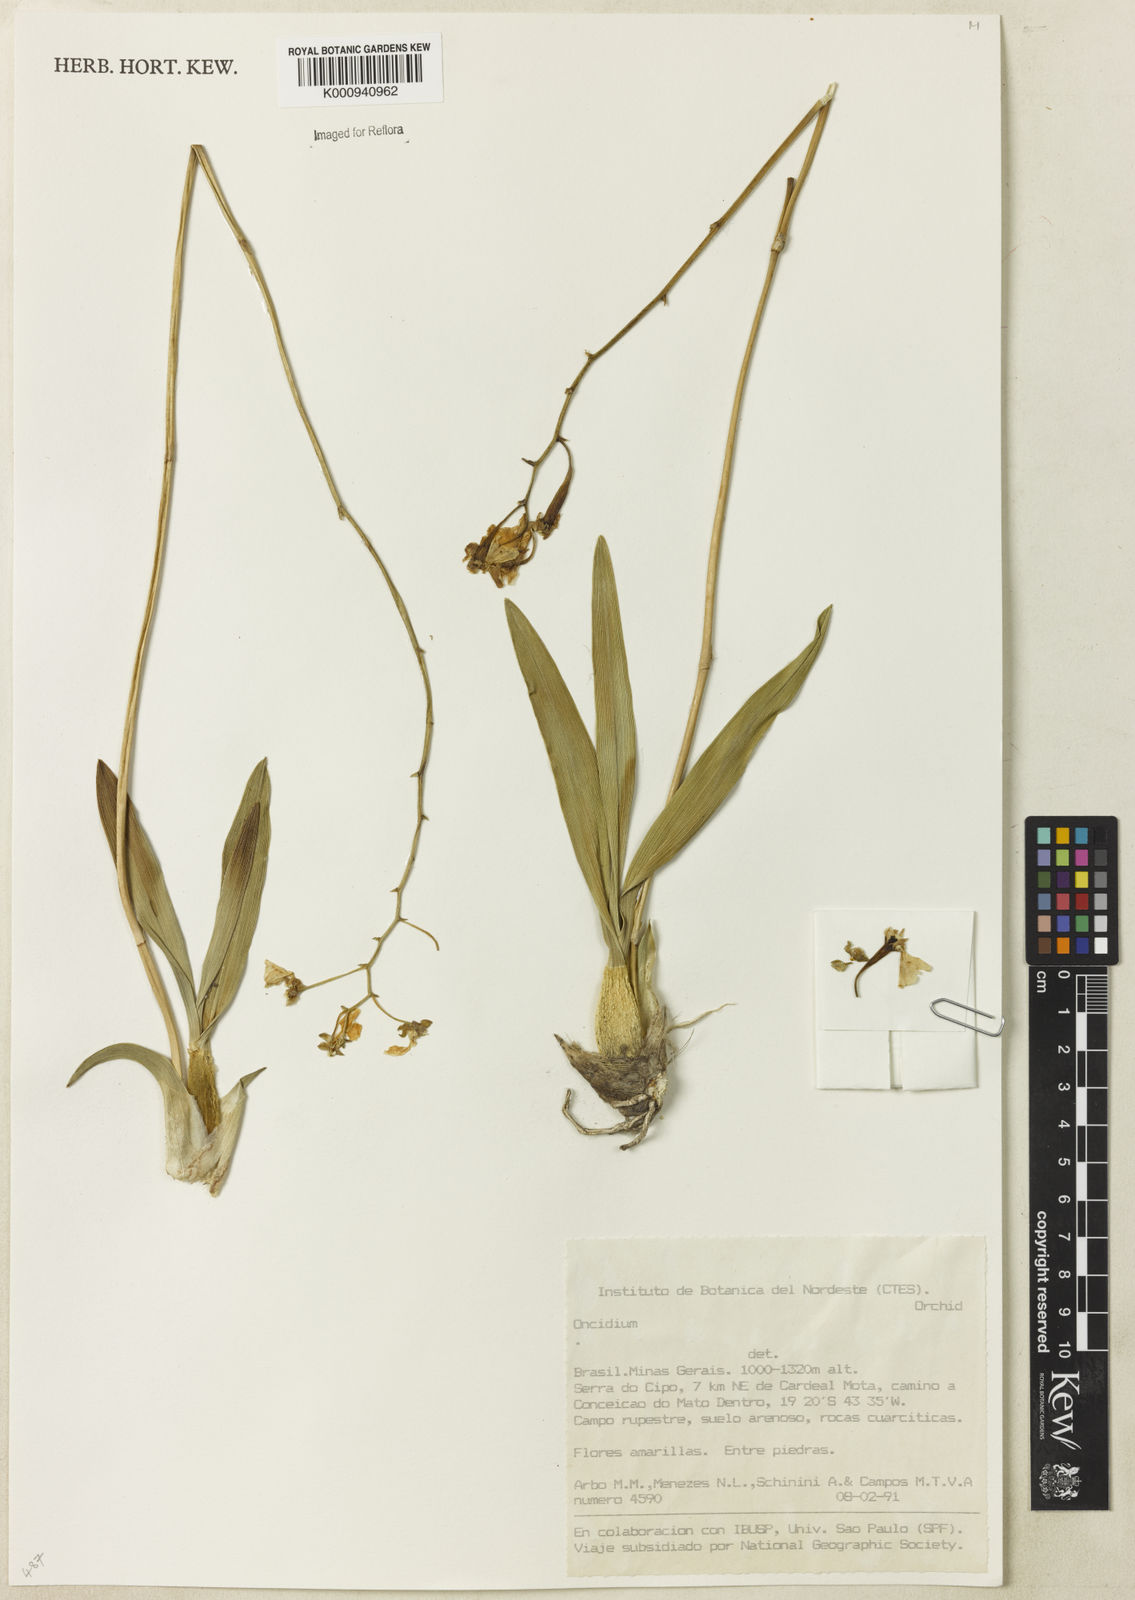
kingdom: Plantae
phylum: Tracheophyta
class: Liliopsida
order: Asparagales
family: Orchidaceae
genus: Oncidium
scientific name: Oncidium
